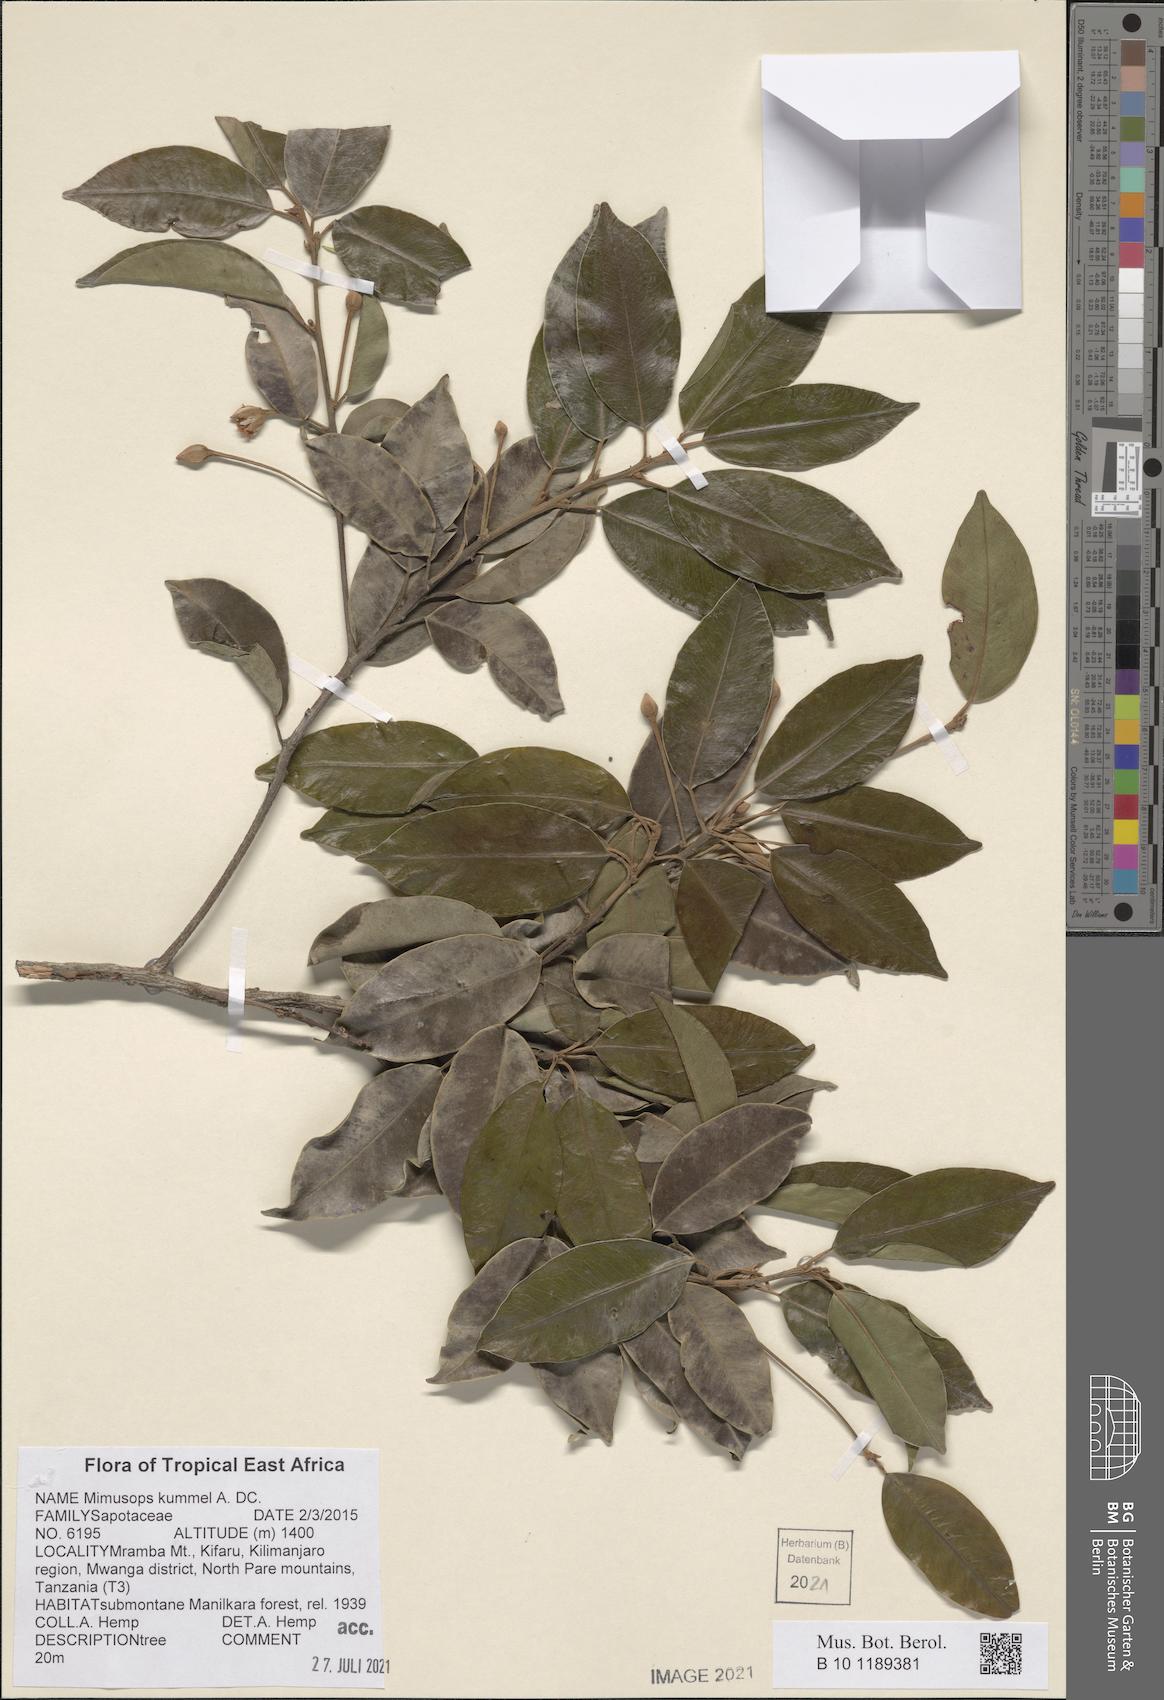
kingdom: Plantae
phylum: Tracheophyta
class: Magnoliopsida
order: Ericales
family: Sapotaceae
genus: Mimusops
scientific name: Mimusops kummel
